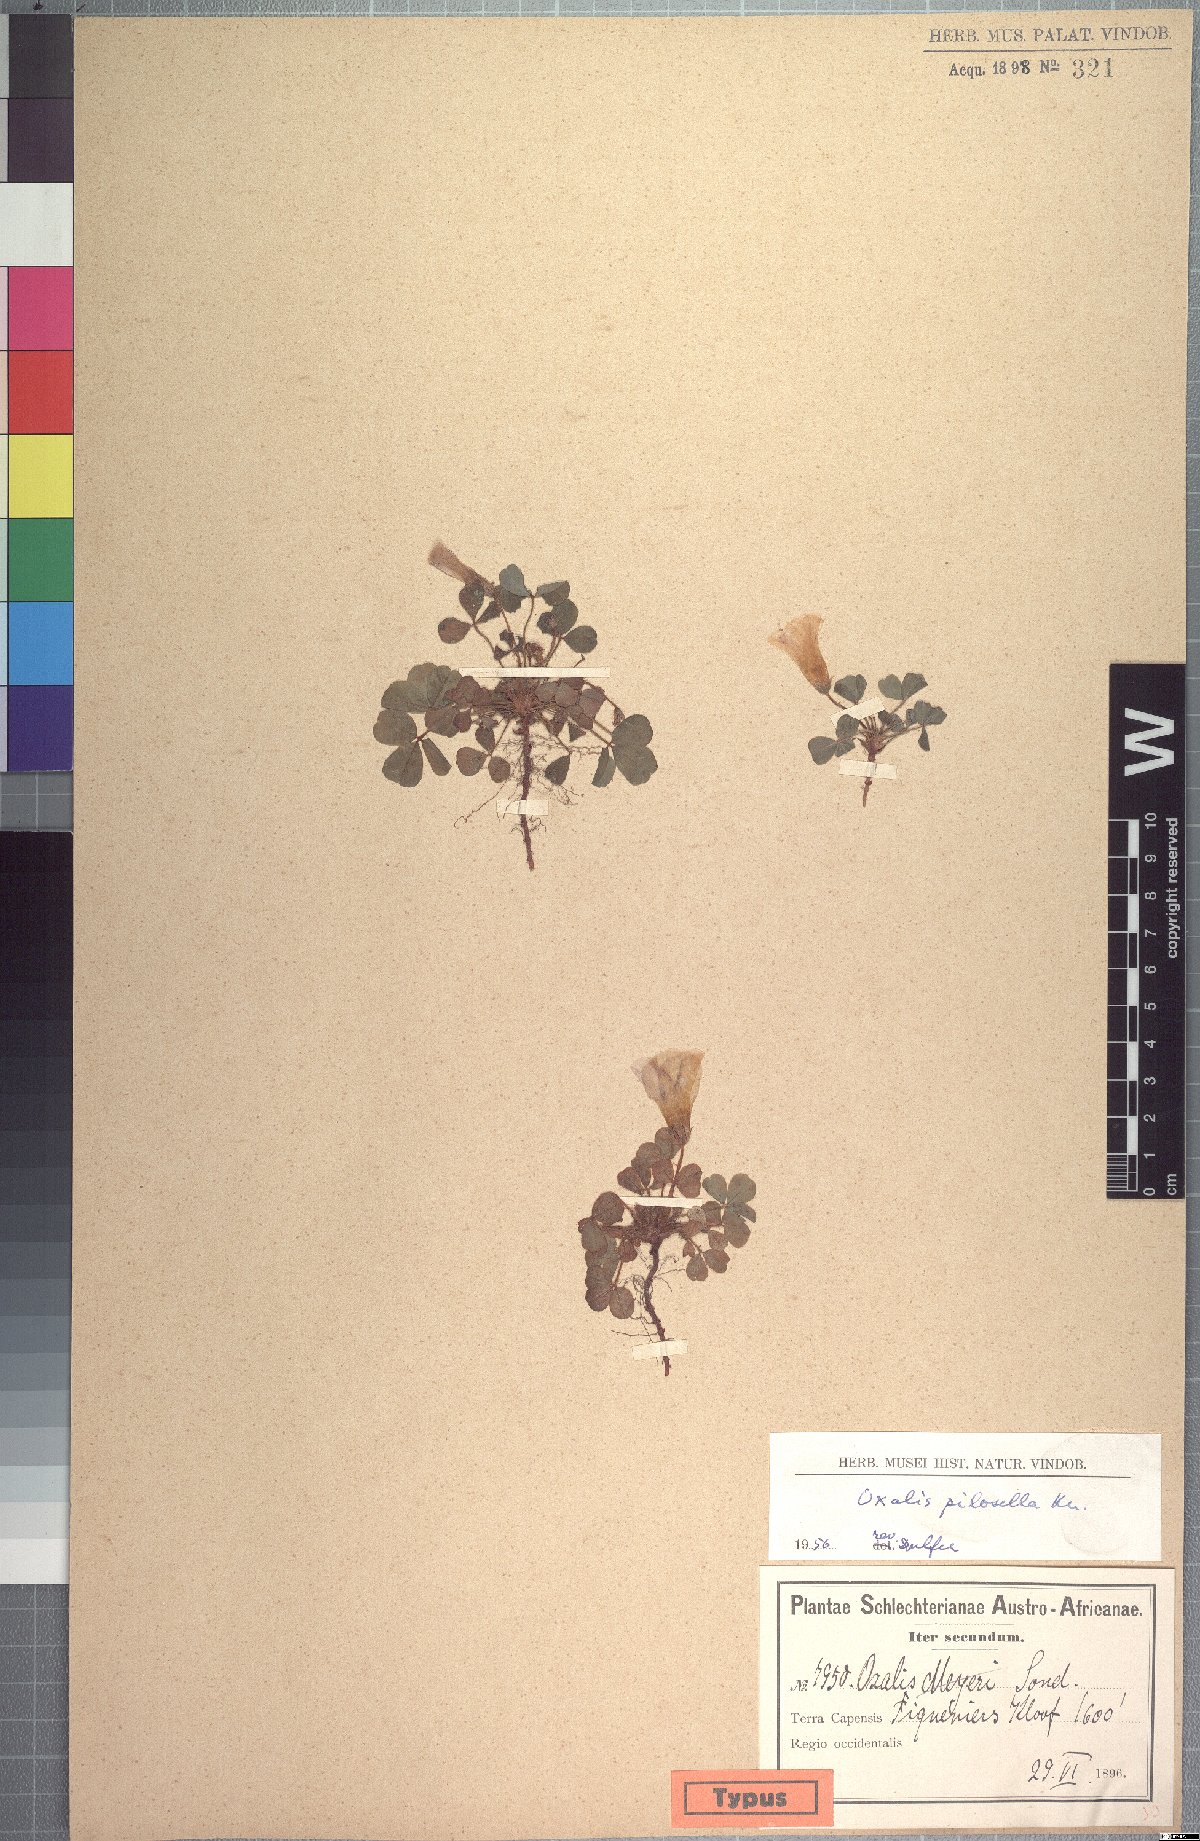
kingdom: Plantae
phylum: Tracheophyta
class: Magnoliopsida
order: Oxalidales
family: Oxalidaceae
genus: Oxalis
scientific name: Oxalis adspersa
